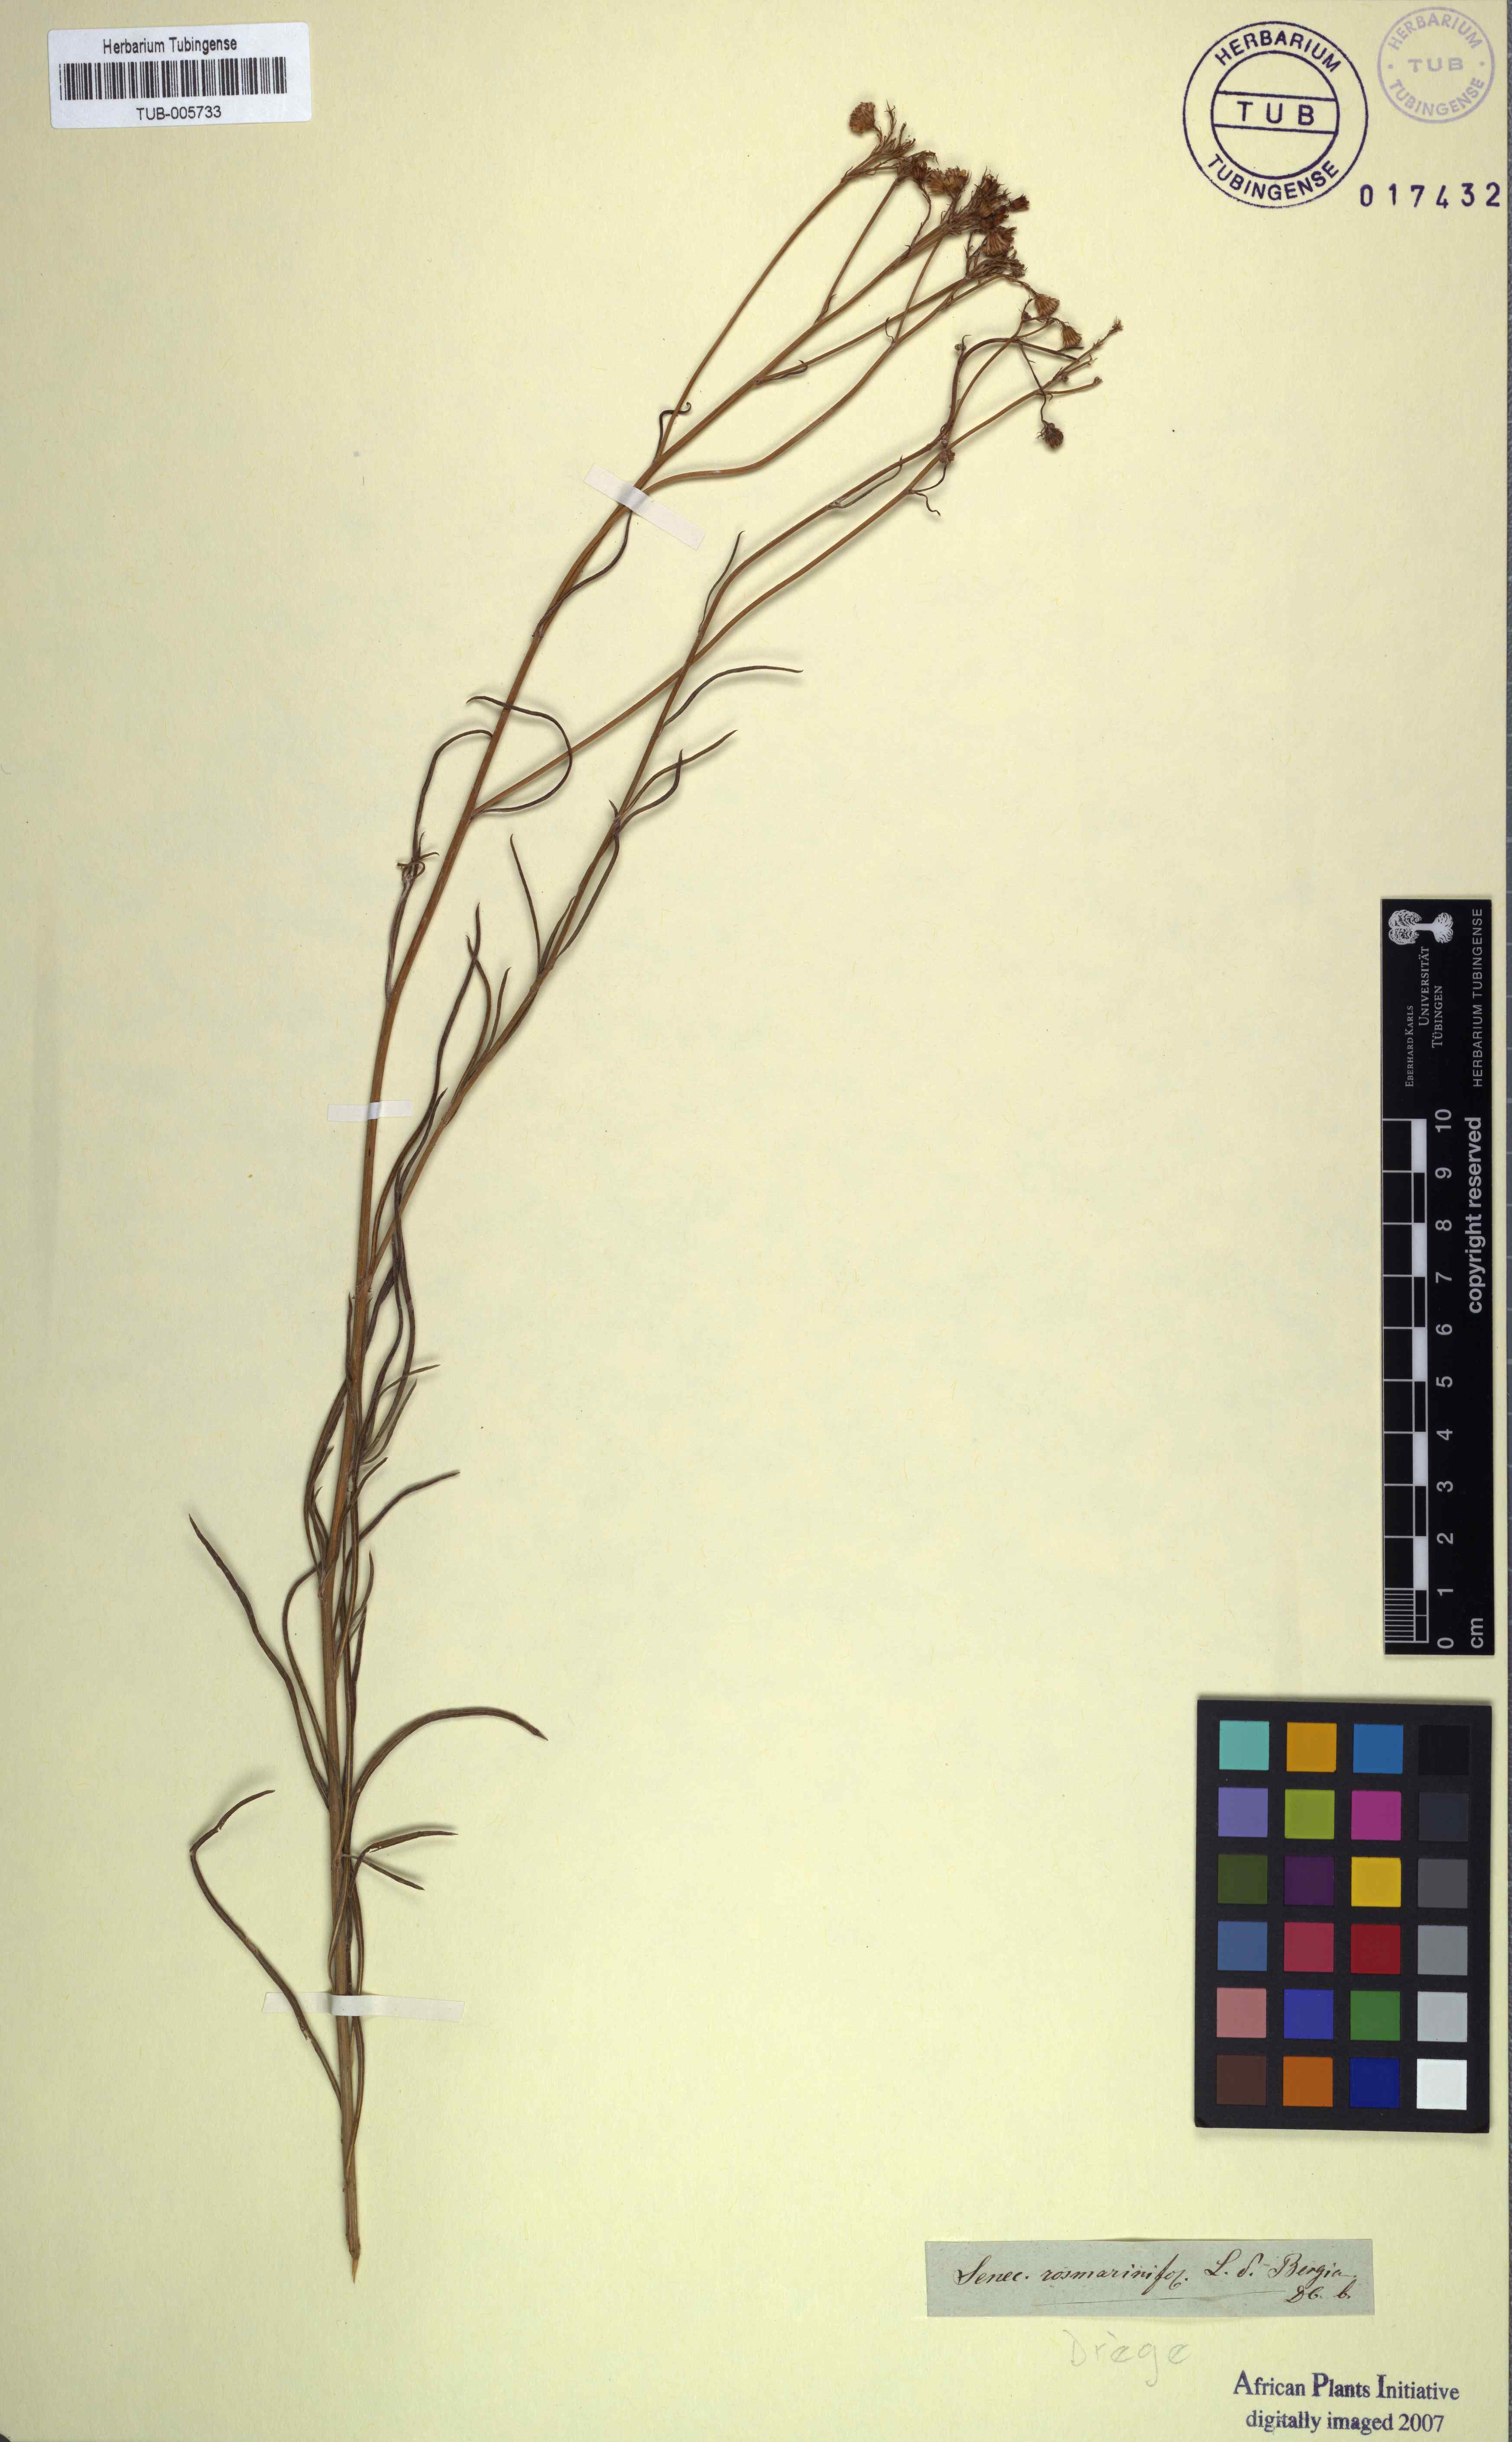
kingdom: Plantae
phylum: Tracheophyta
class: Magnoliopsida
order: Asterales
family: Asteraceae
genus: Senecio
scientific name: Senecio rosmarinifolius
